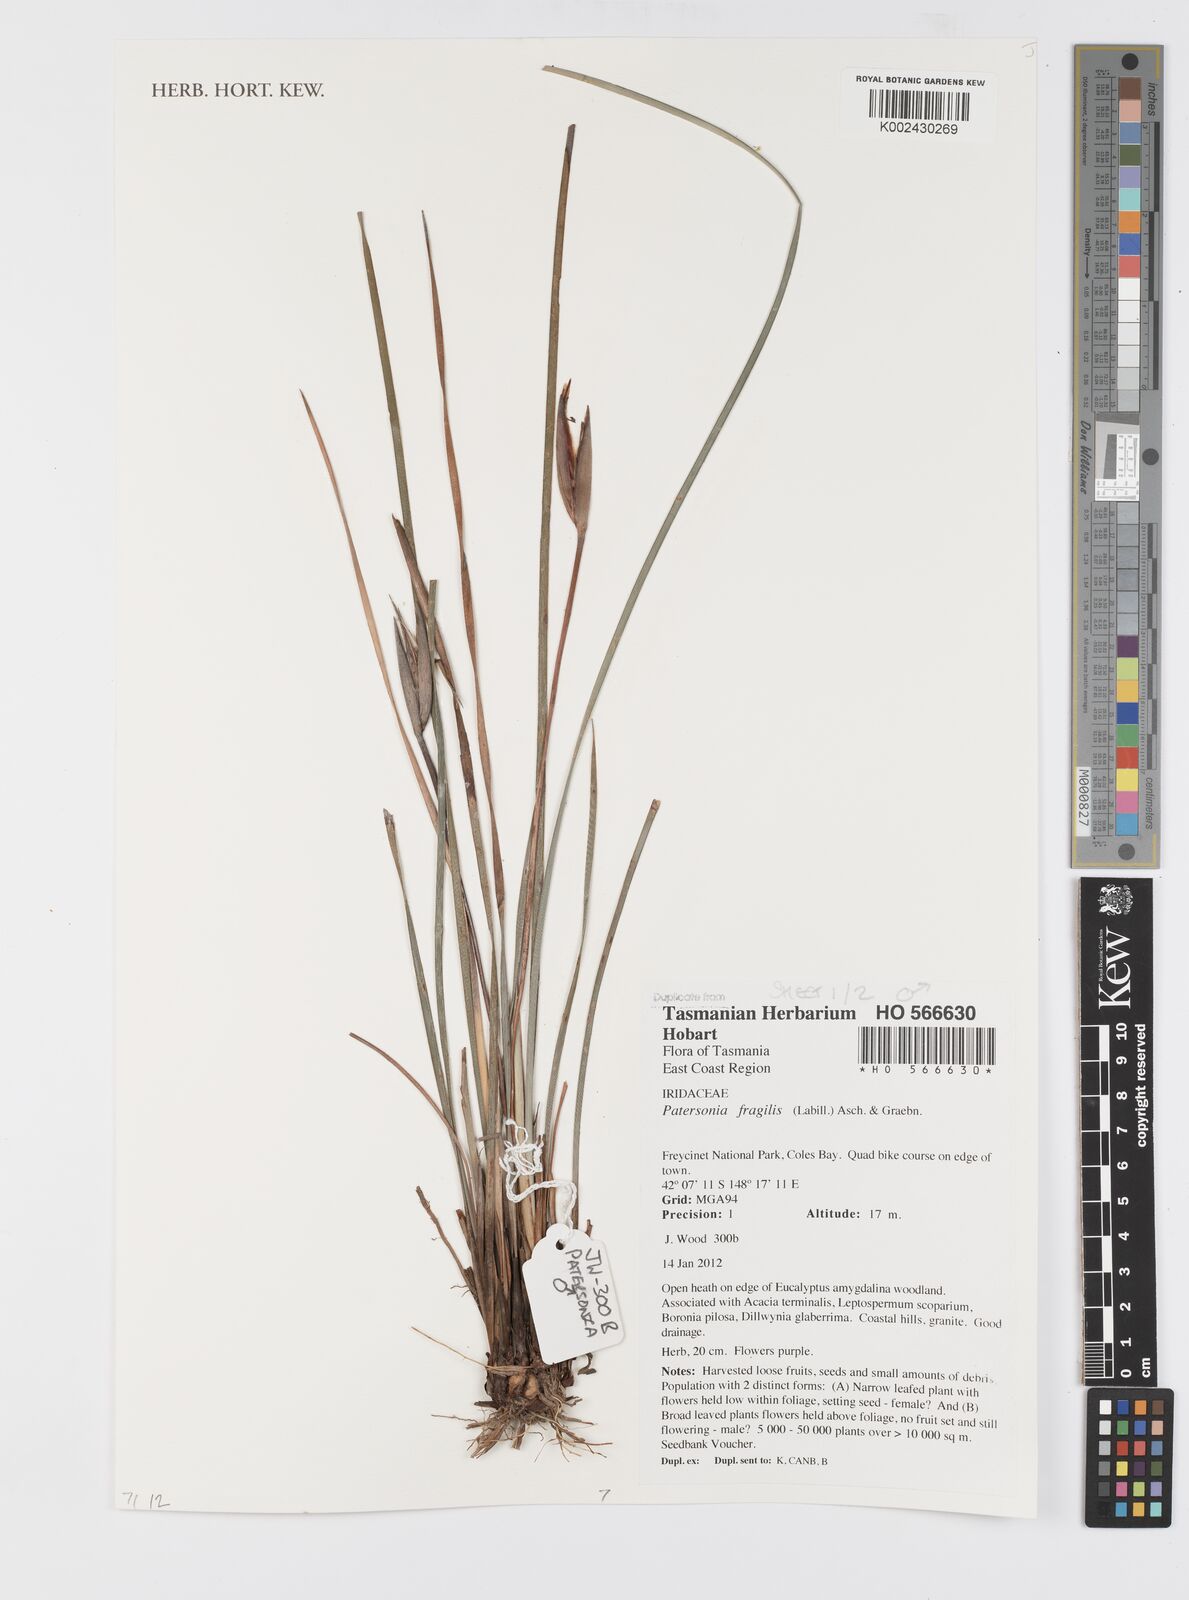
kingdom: Plantae
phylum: Tracheophyta
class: Liliopsida
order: Asparagales
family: Iridaceae
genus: Patersonia
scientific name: Patersonia fragilis
